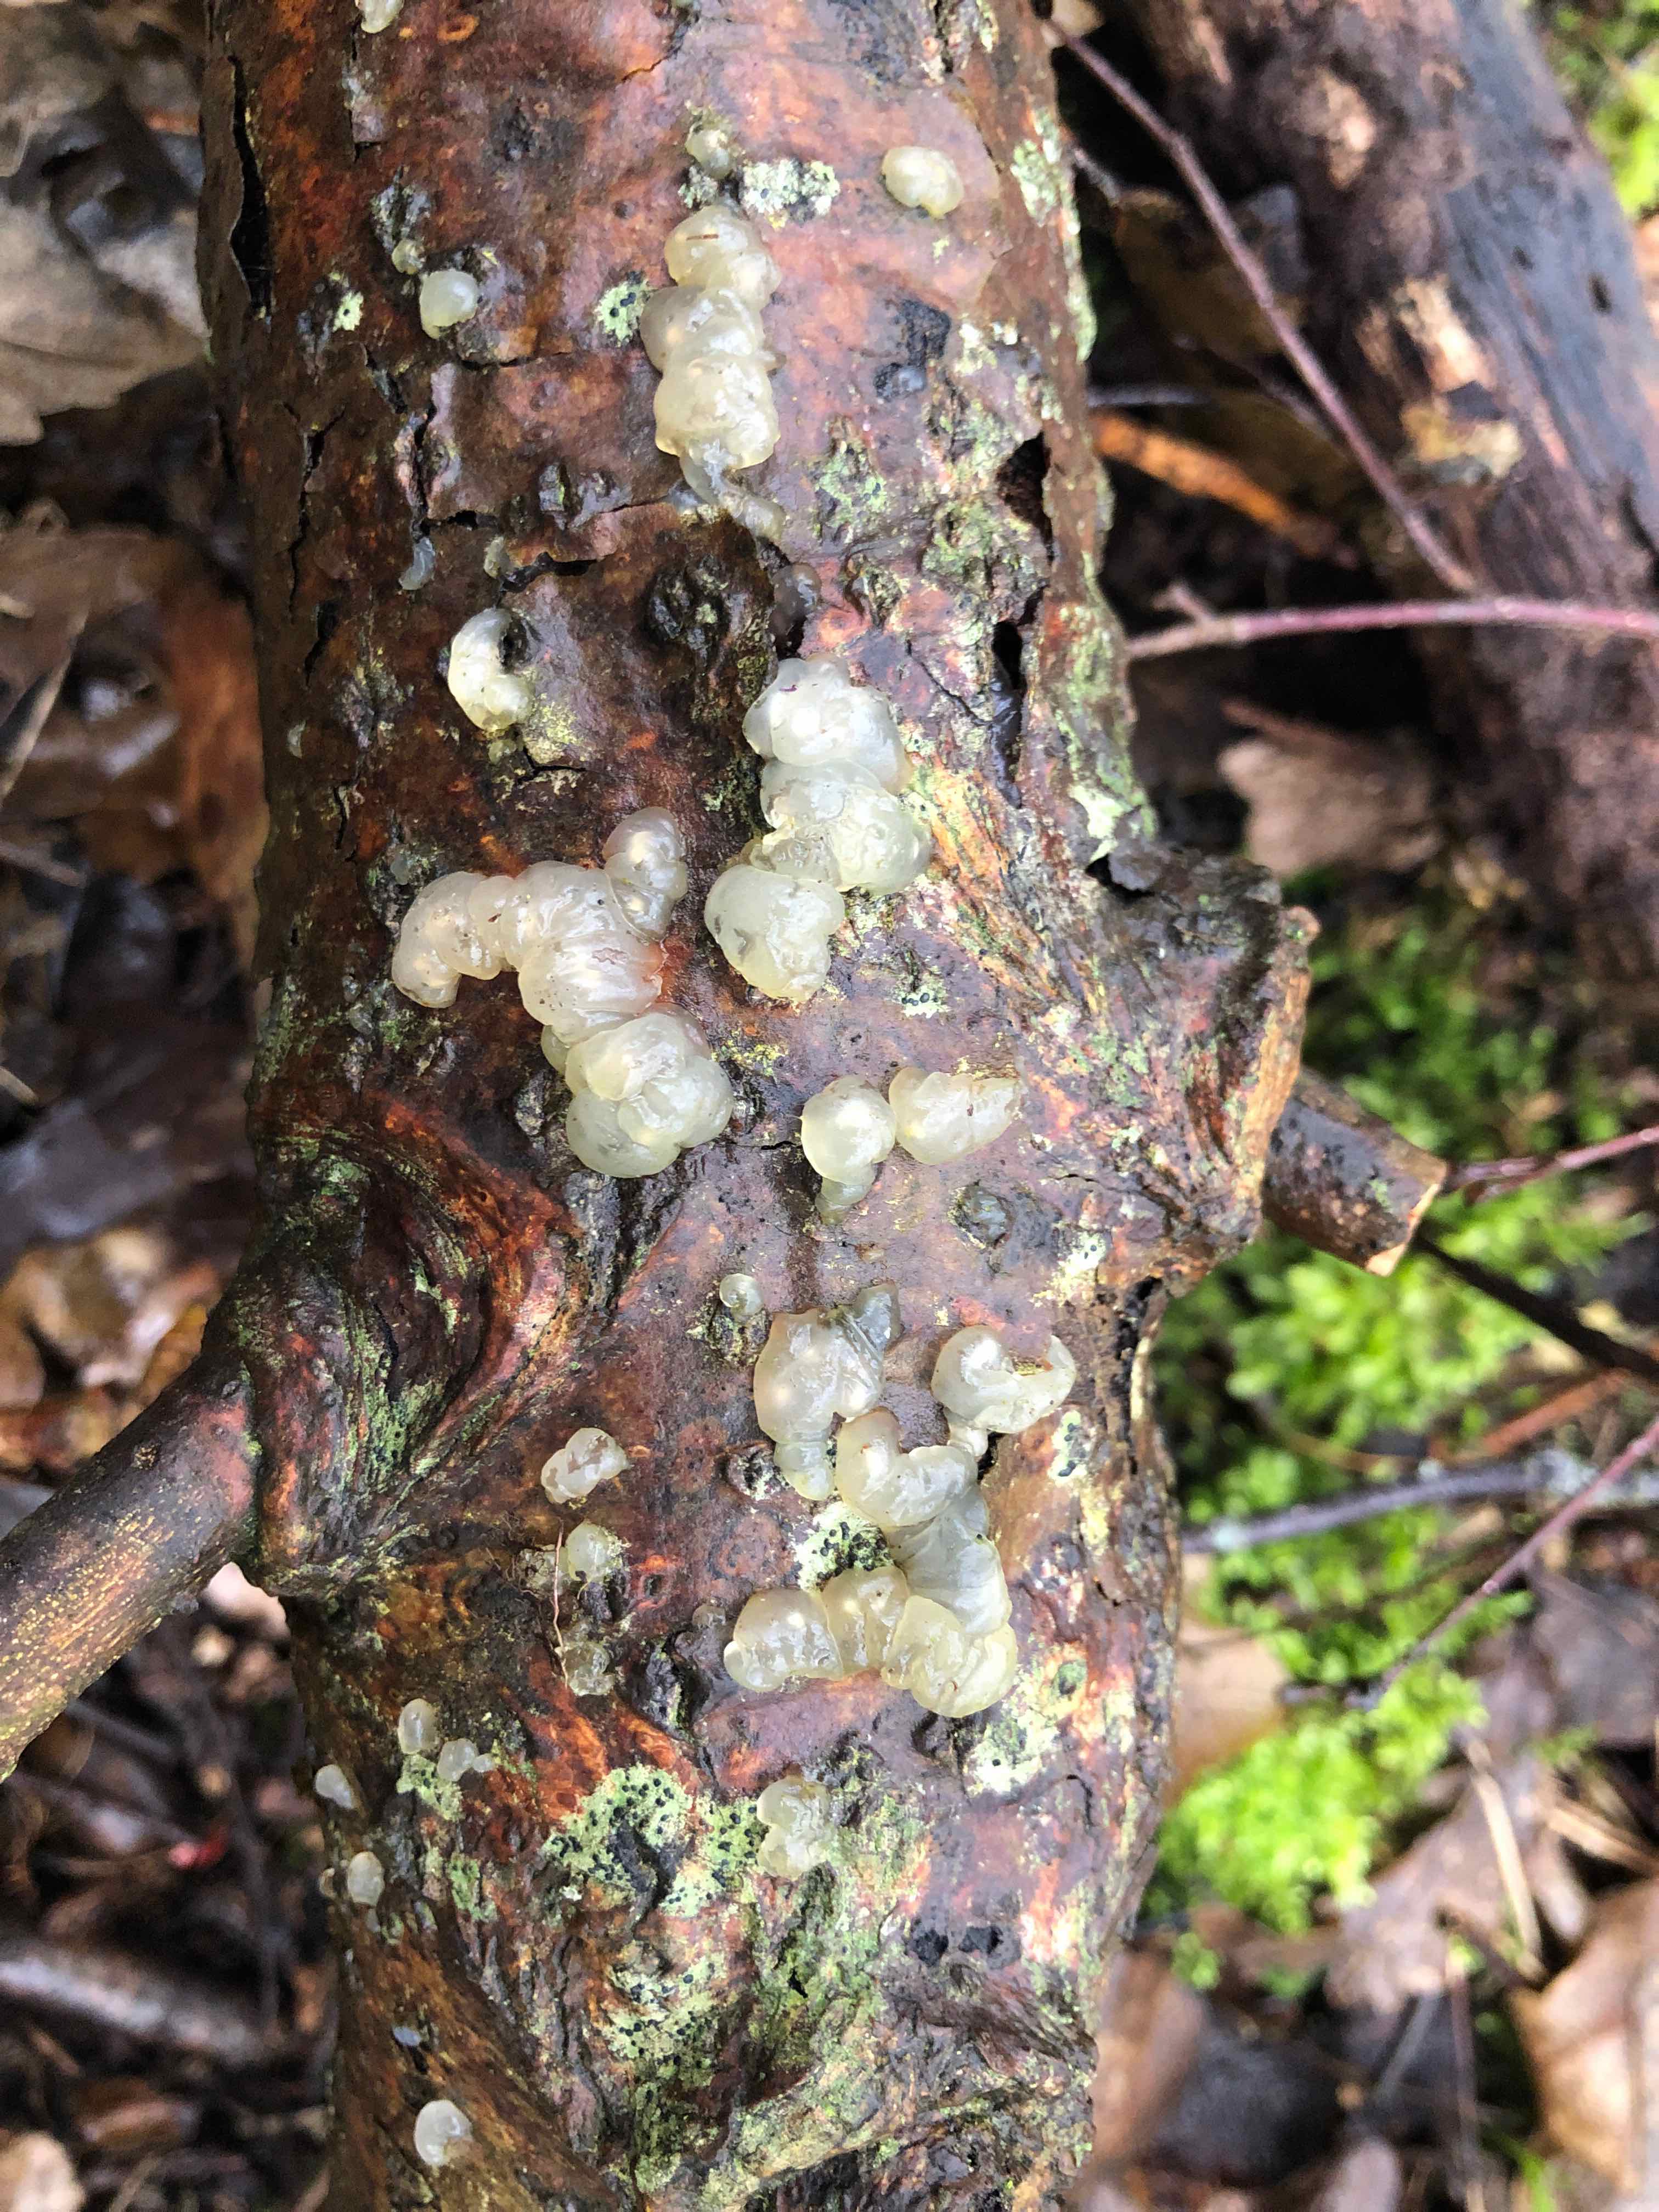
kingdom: Fungi
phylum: Basidiomycota
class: Agaricomycetes
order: Auriculariales
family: Hyaloriaceae
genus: Myxarium
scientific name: Myxarium nucleatum
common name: klar bævretop
